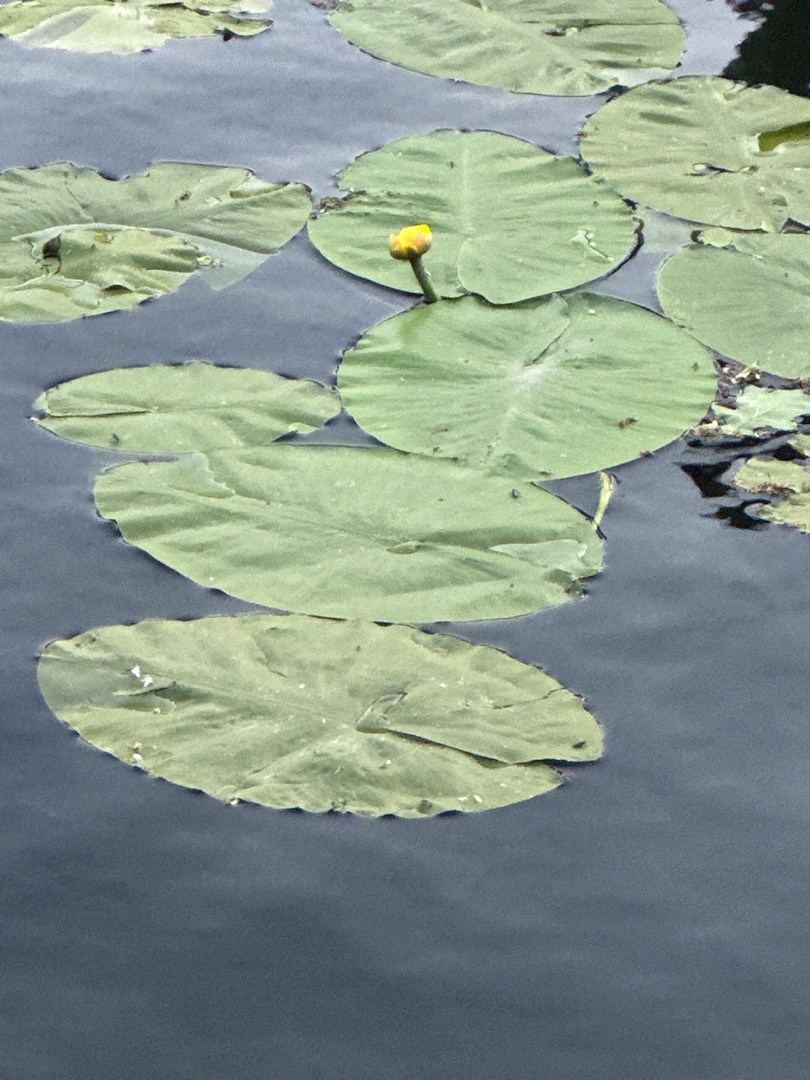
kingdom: Plantae
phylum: Tracheophyta
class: Magnoliopsida
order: Nymphaeales
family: Nymphaeaceae
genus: Nuphar
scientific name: Nuphar lutea
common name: Gul åkande
